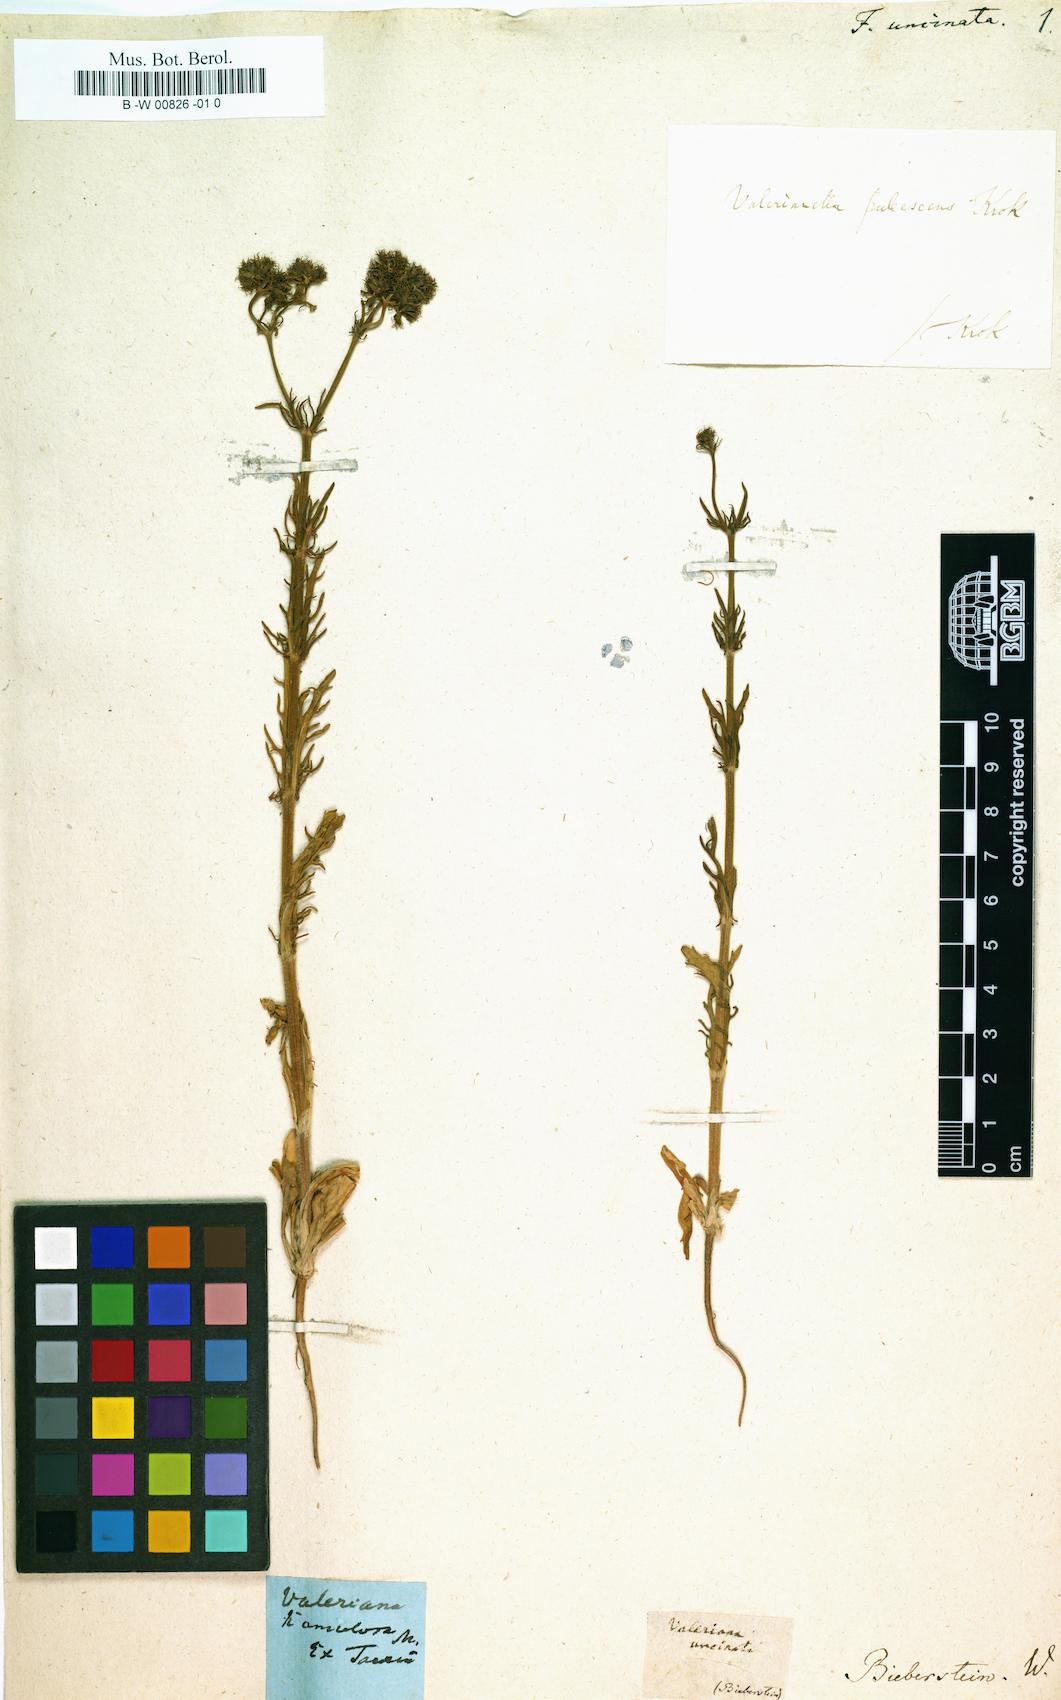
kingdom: Plantae
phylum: Tracheophyta
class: Magnoliopsida
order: Dipsacales
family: Caprifoliaceae
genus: Valerianella
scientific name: Valerianella uncinata
